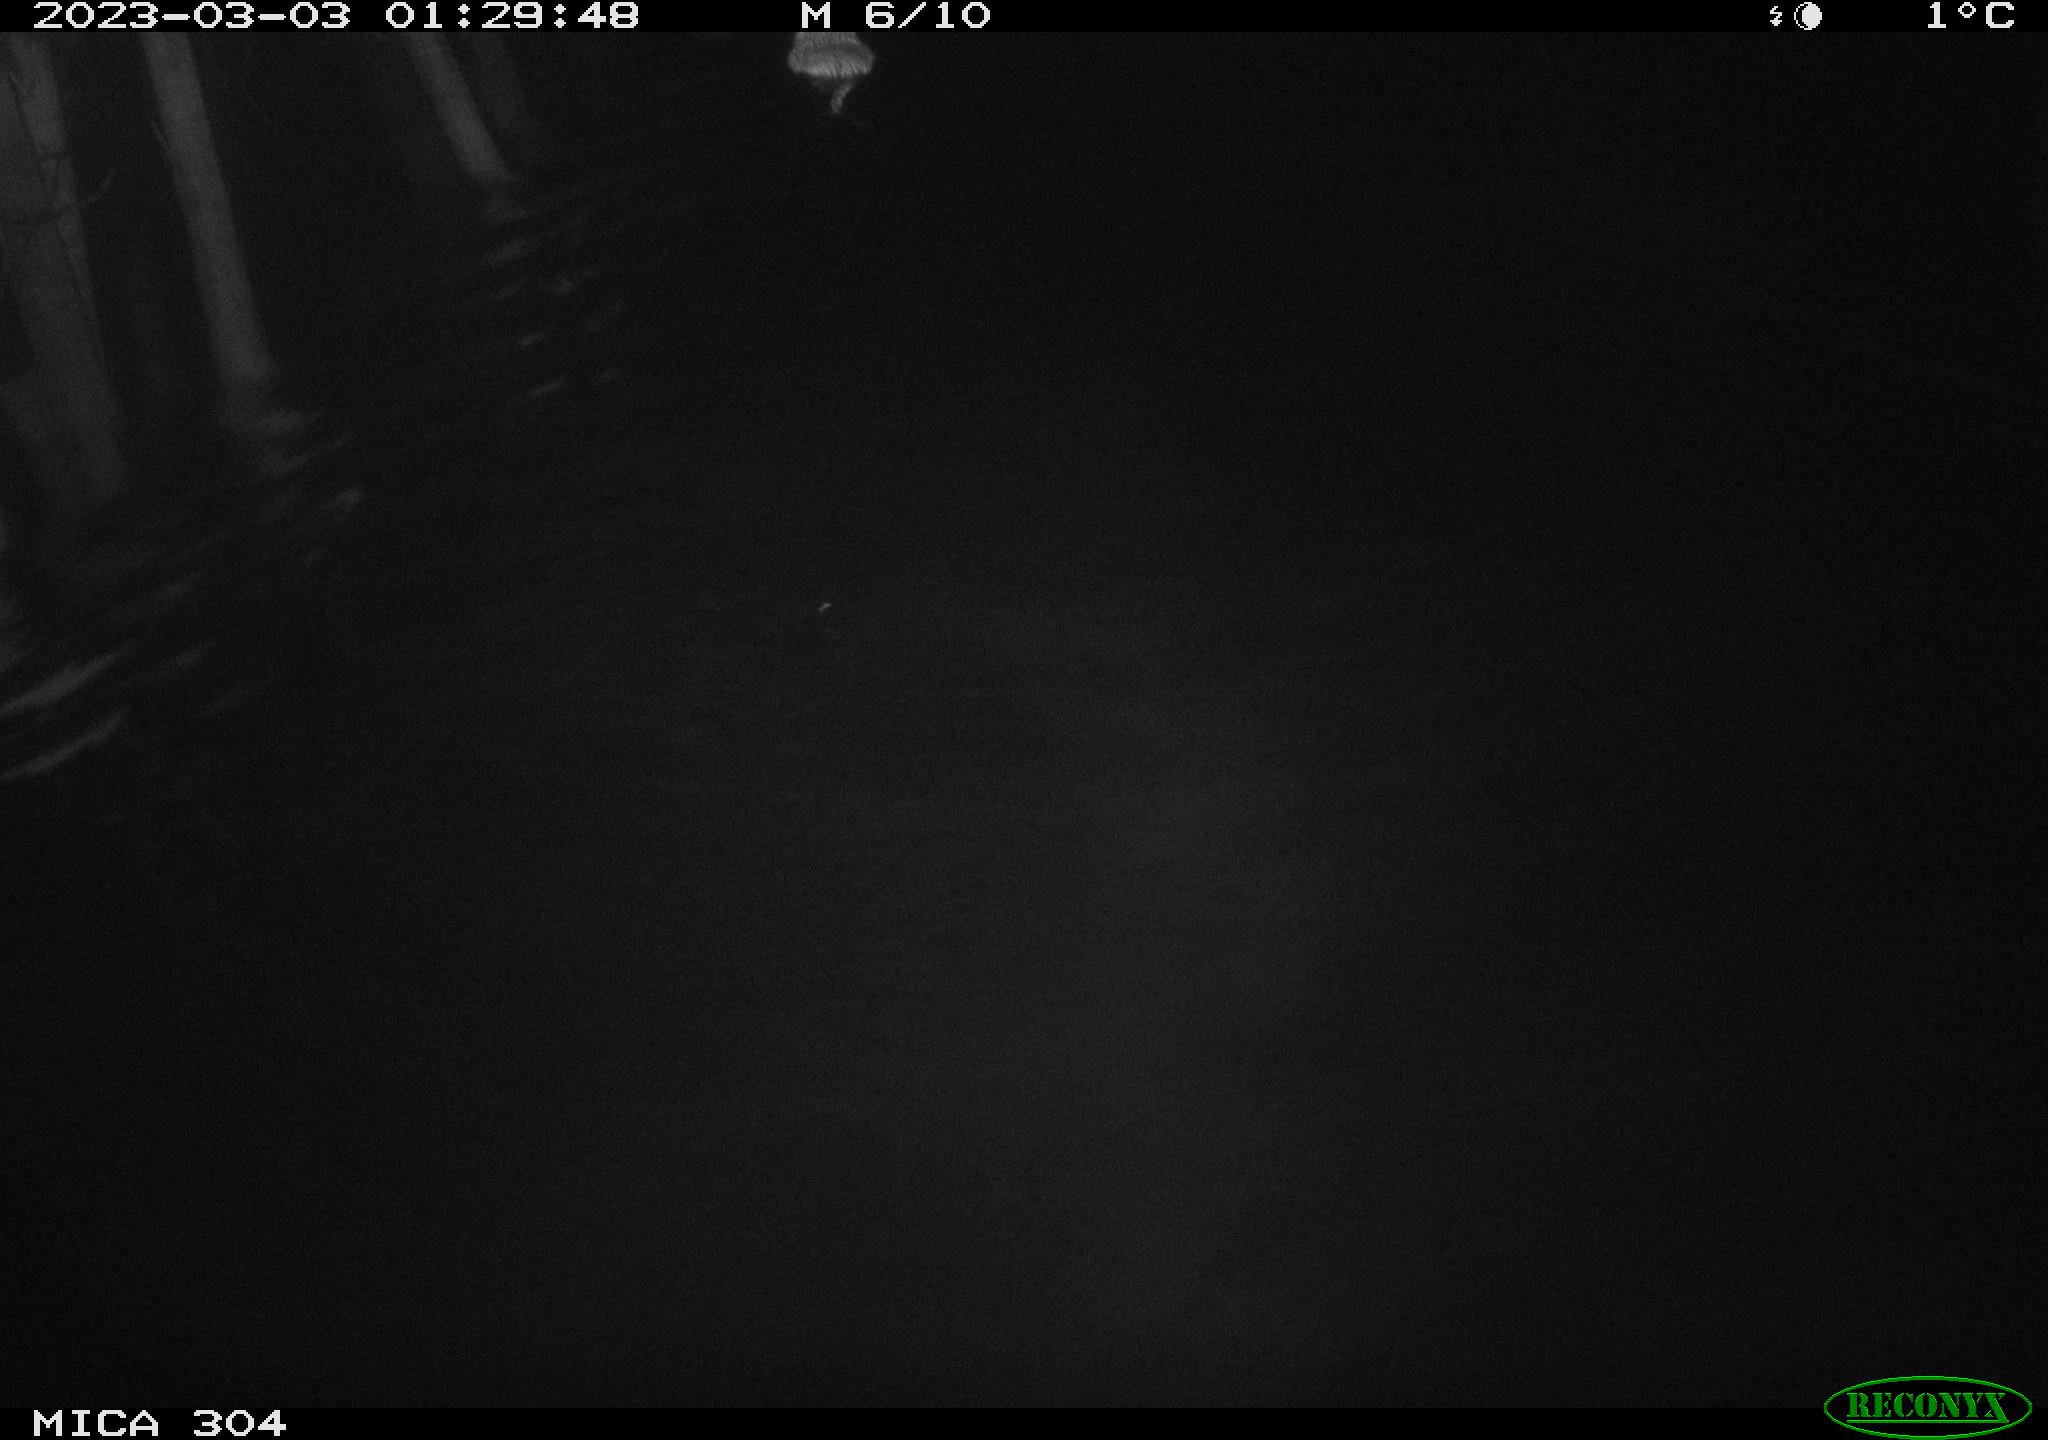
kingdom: Animalia
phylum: Chordata
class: Mammalia
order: Rodentia
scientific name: Rodentia
